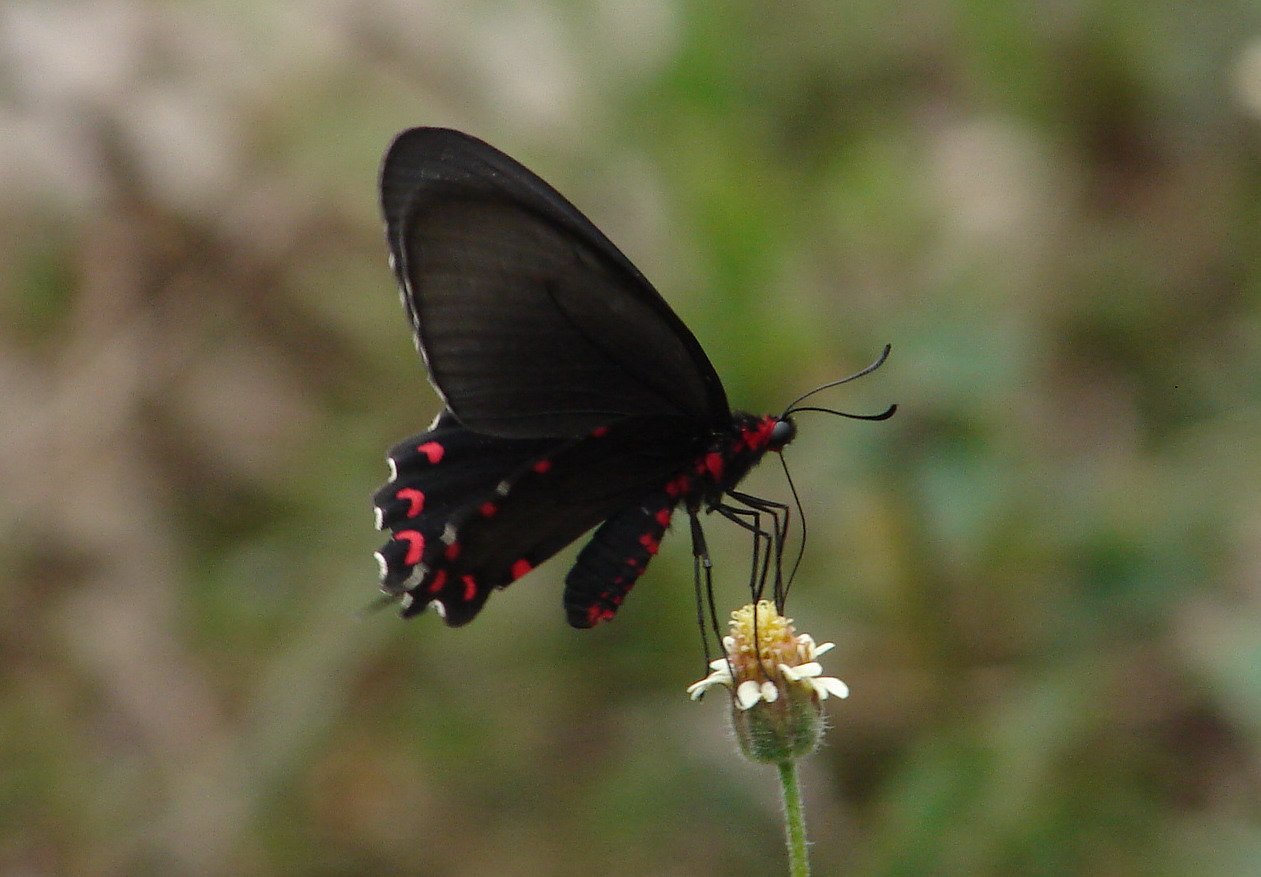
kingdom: Animalia
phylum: Arthropoda
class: Insecta
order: Lepidoptera
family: Papilionidae
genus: Parides
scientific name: Parides montezuma
